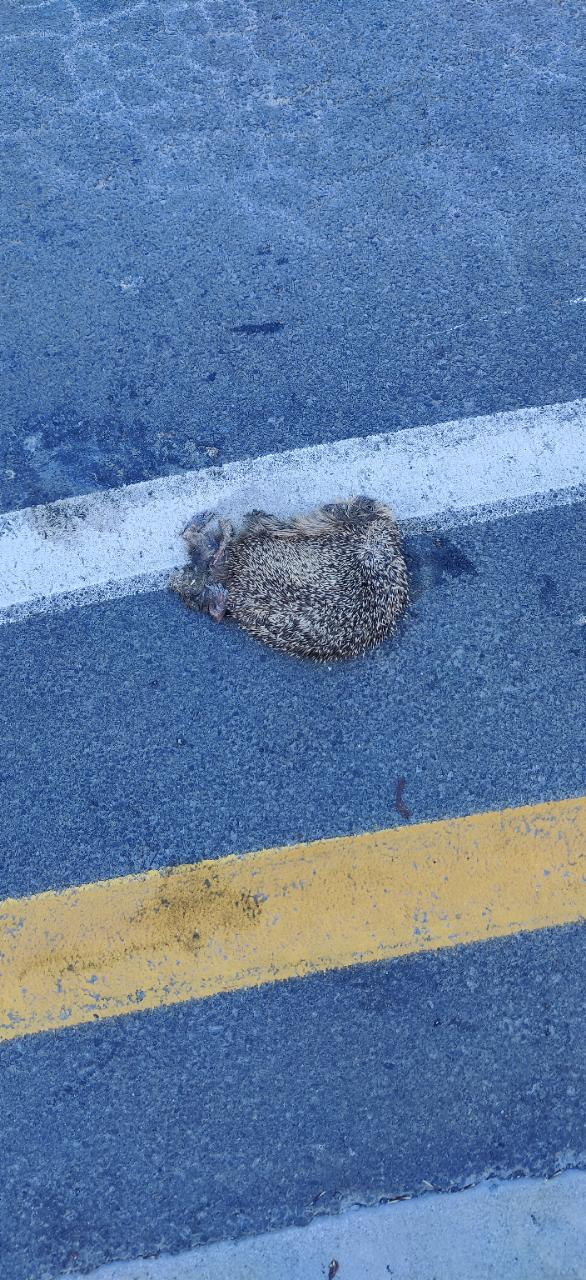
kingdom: Animalia
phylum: Chordata
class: Mammalia
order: Erinaceomorpha
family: Erinaceidae
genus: Erinaceus
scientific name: Erinaceus
